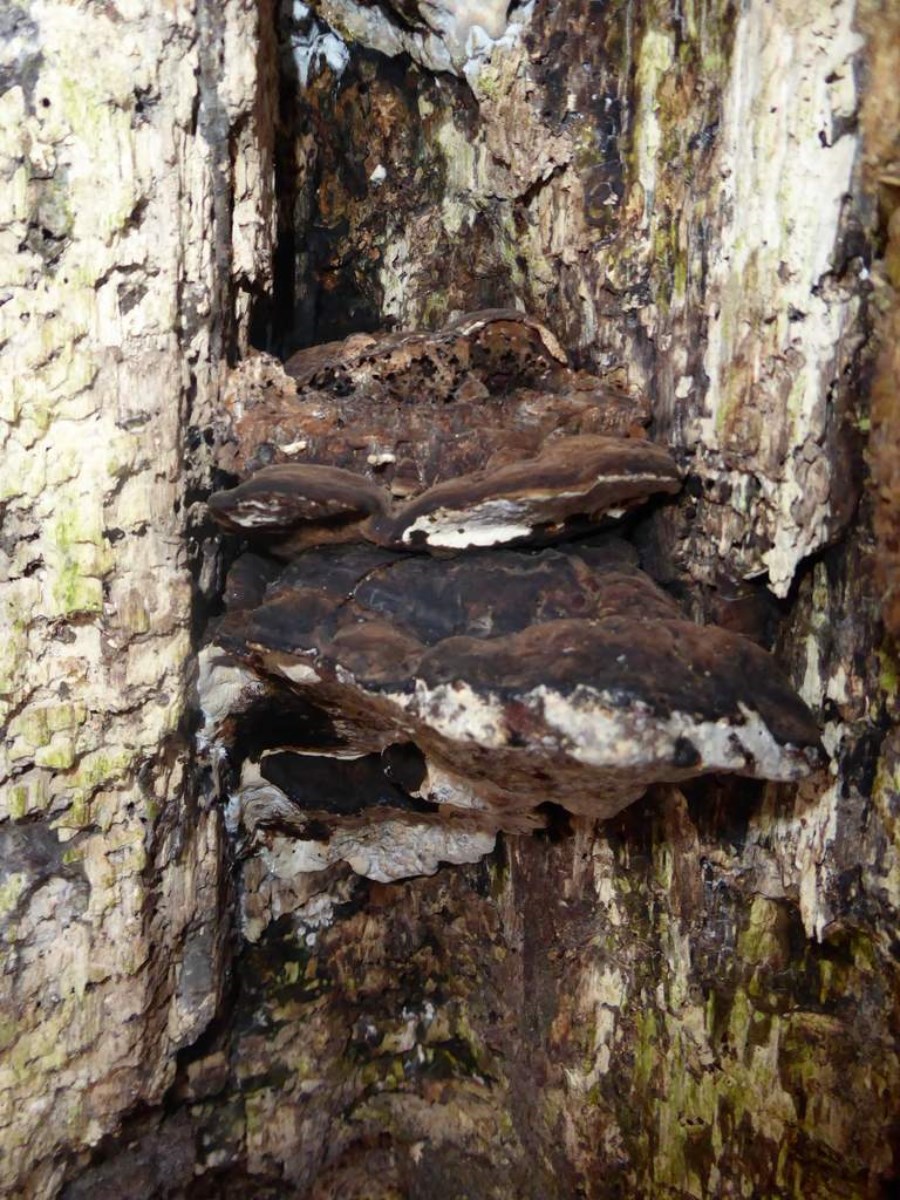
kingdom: Fungi
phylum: Basidiomycota
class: Agaricomycetes
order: Polyporales
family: Polyporaceae
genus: Ganoderma
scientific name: Ganoderma
